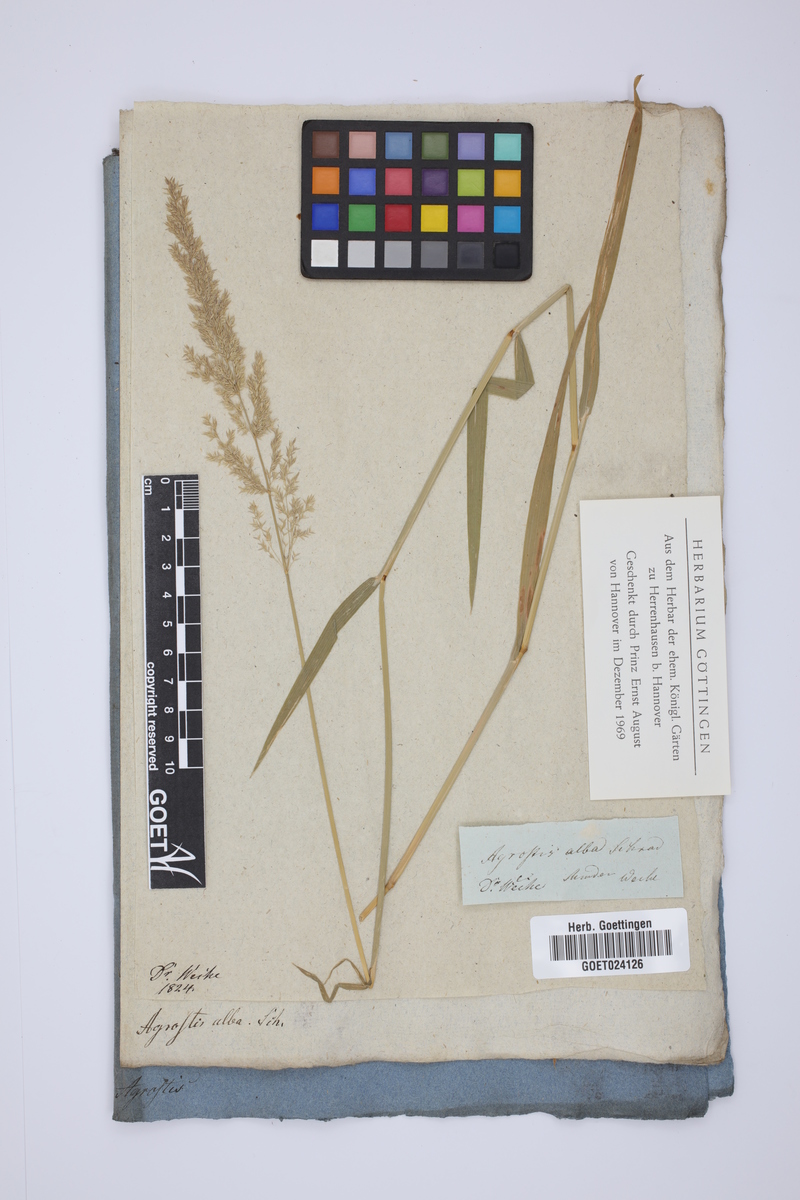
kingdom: Plantae
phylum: Tracheophyta
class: Liliopsida
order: Poales
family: Poaceae
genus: Poa
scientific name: Poa nemoralis
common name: Wood bluegrass
